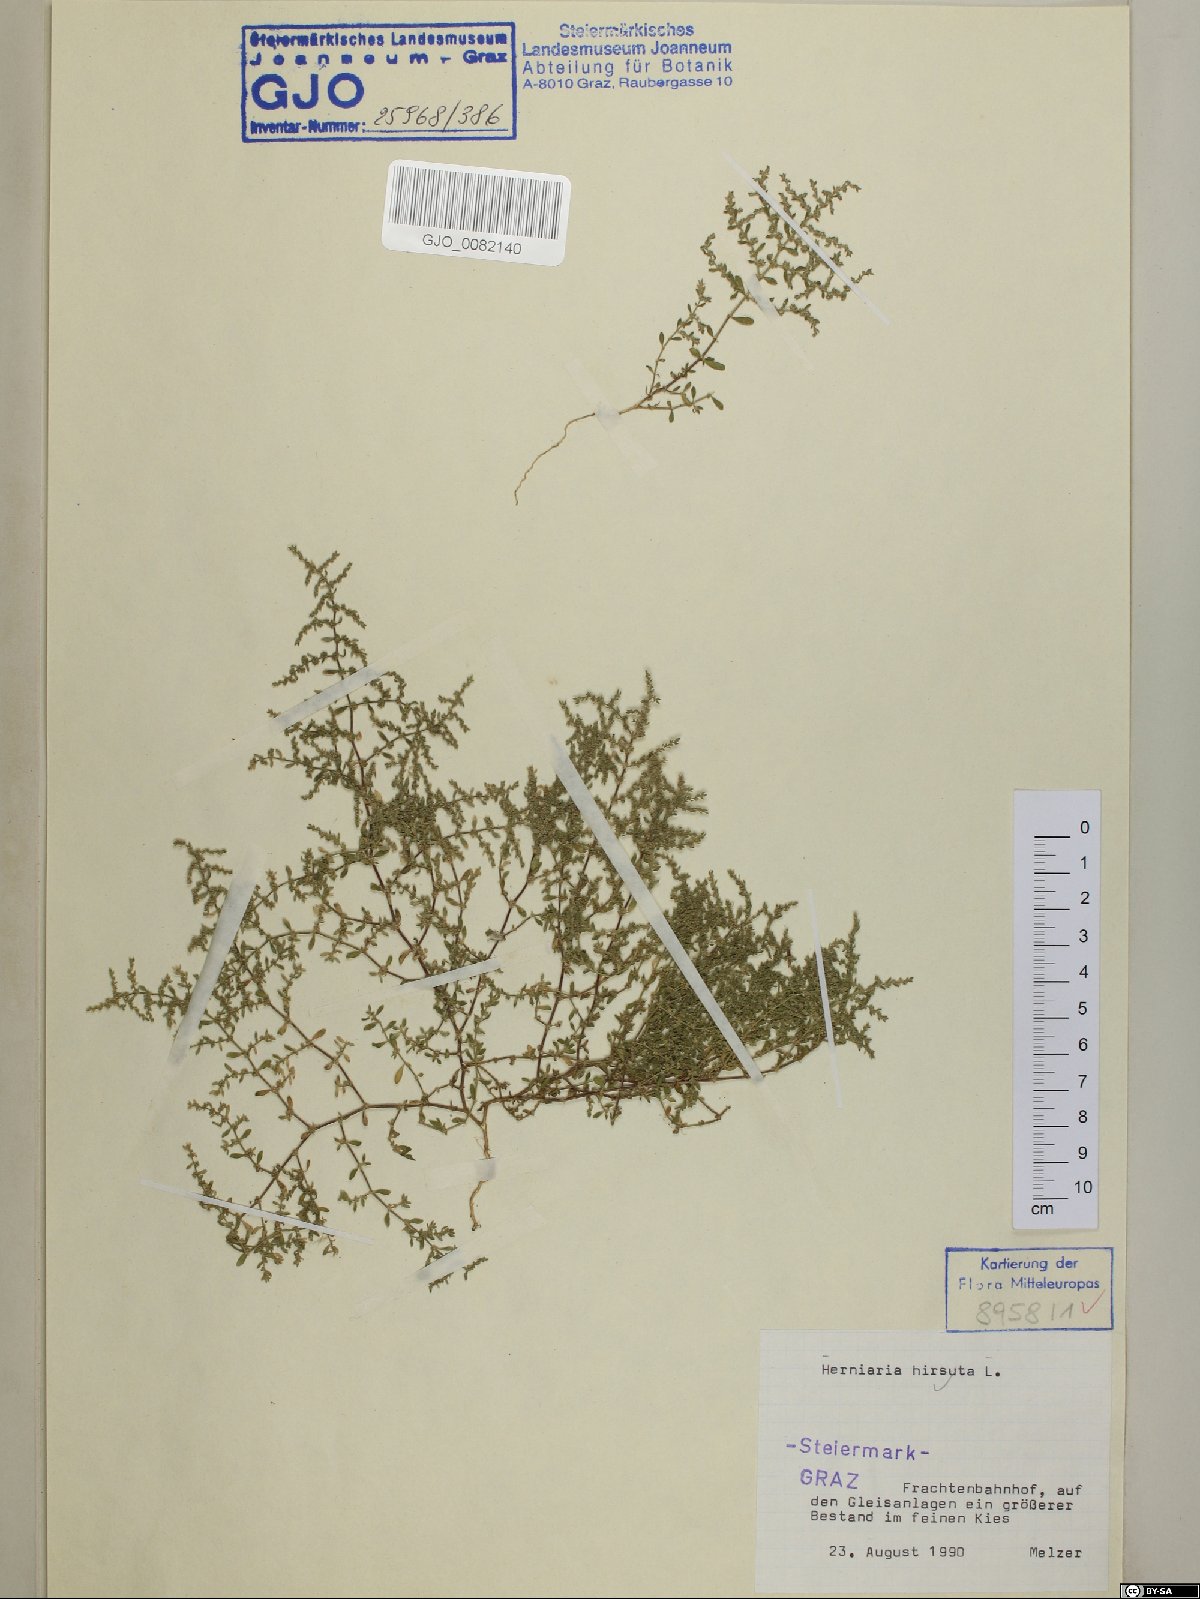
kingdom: Plantae
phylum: Tracheophyta
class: Magnoliopsida
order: Caryophyllales
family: Caryophyllaceae
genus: Herniaria
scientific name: Herniaria hirsuta
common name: Hairy rupturewort
